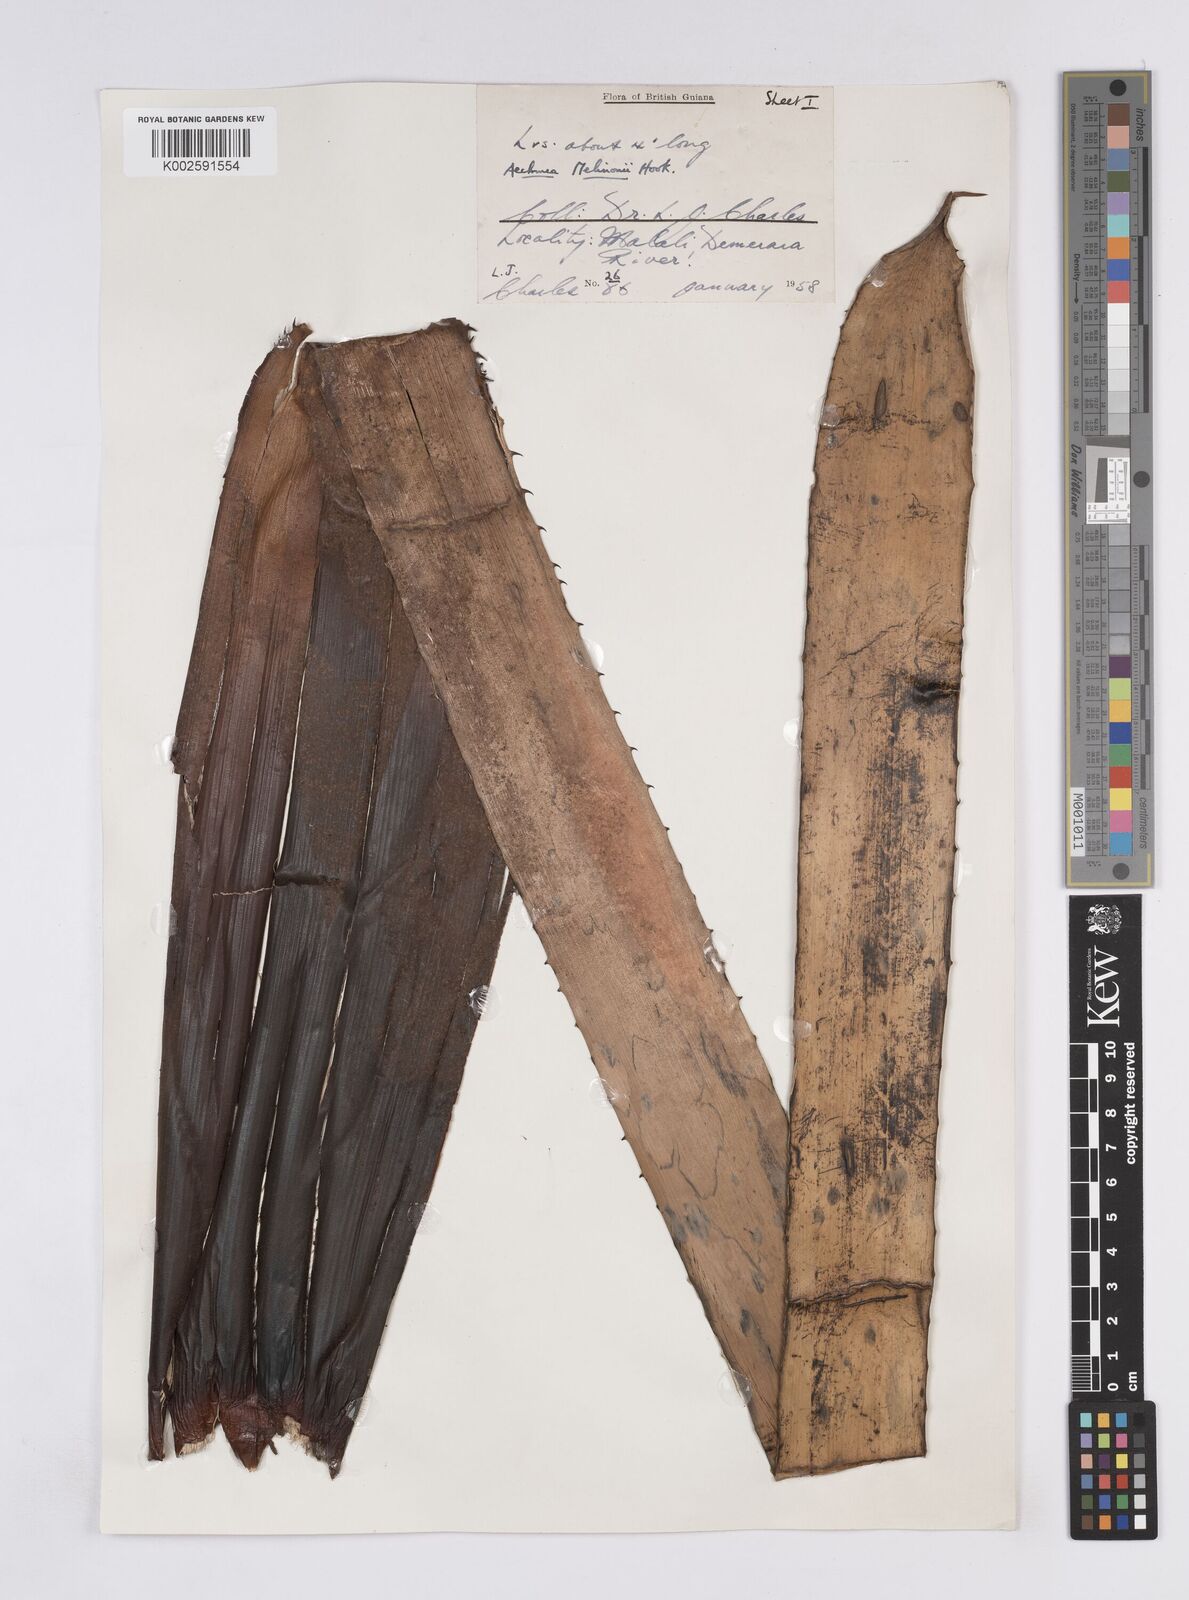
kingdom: Plantae
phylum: Tracheophyta
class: Liliopsida
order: Poales
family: Bromeliaceae
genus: Aechmea
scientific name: Aechmea melinonii
